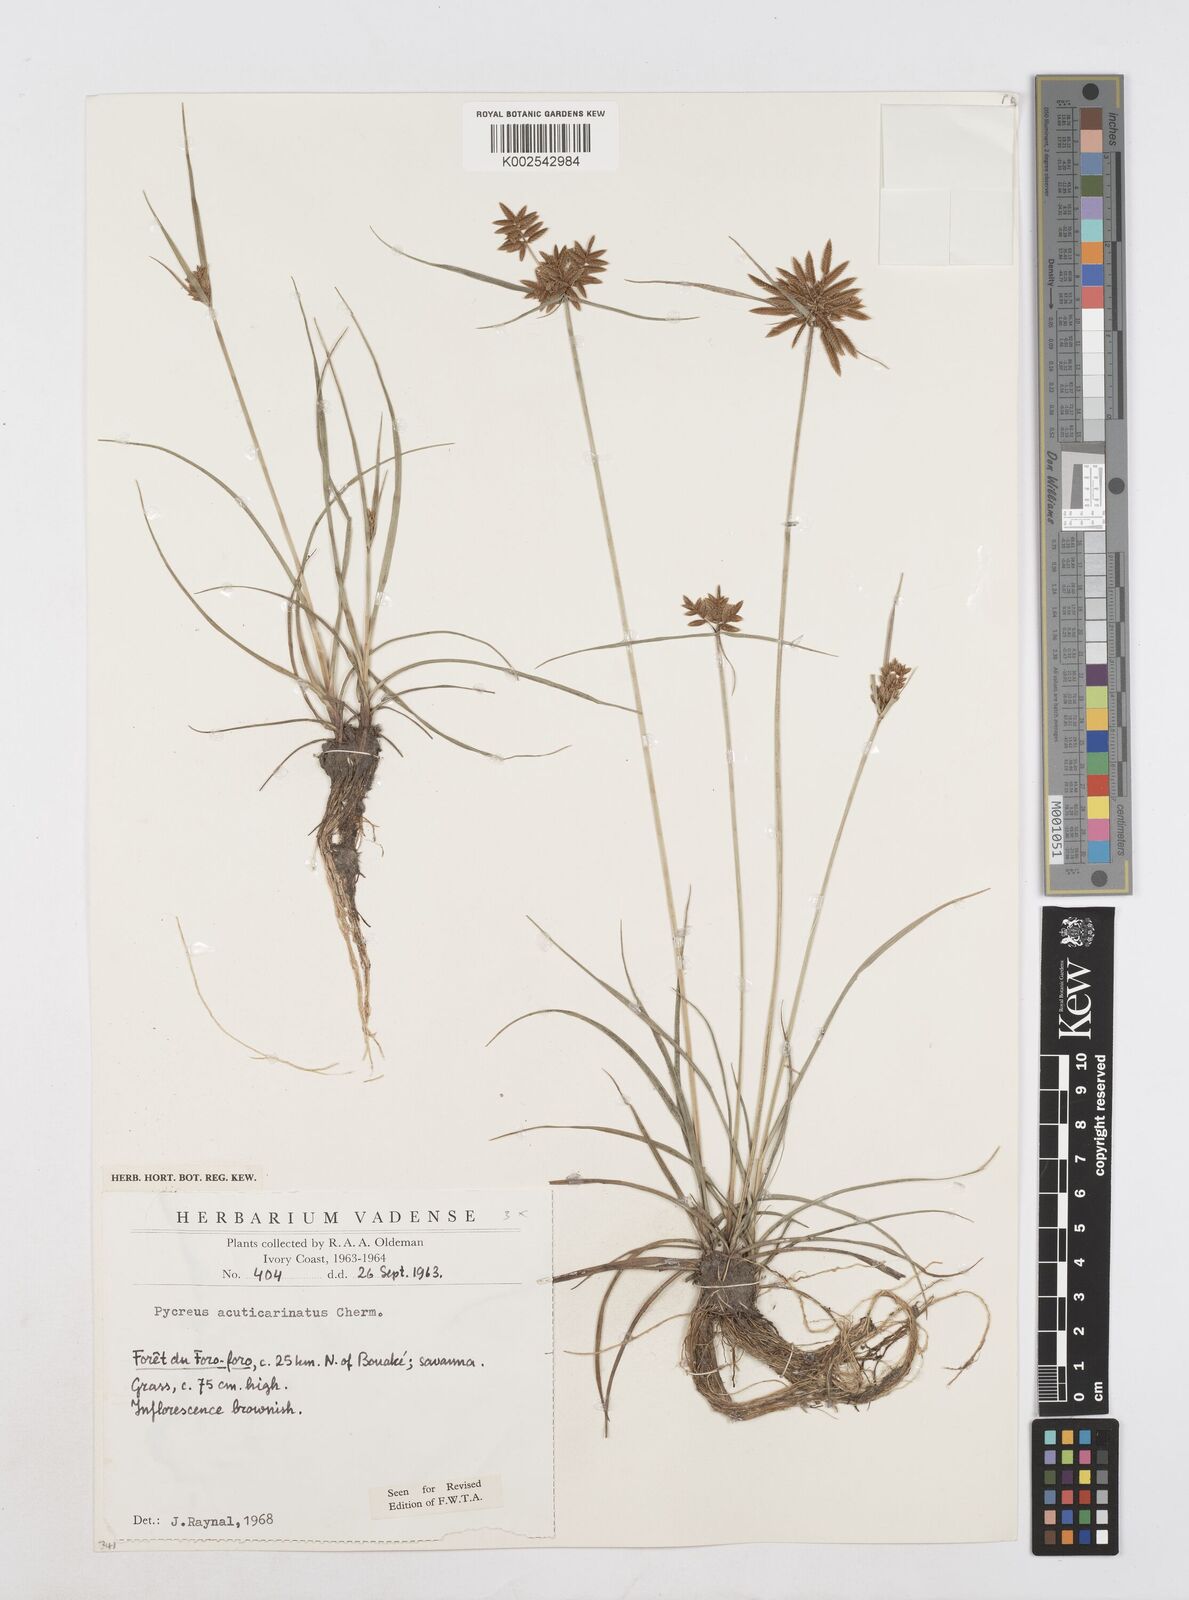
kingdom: Plantae
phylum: Tracheophyta
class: Liliopsida
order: Poales
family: Cyperaceae
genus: Cyperus
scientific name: Cyperus acuticarinatus
